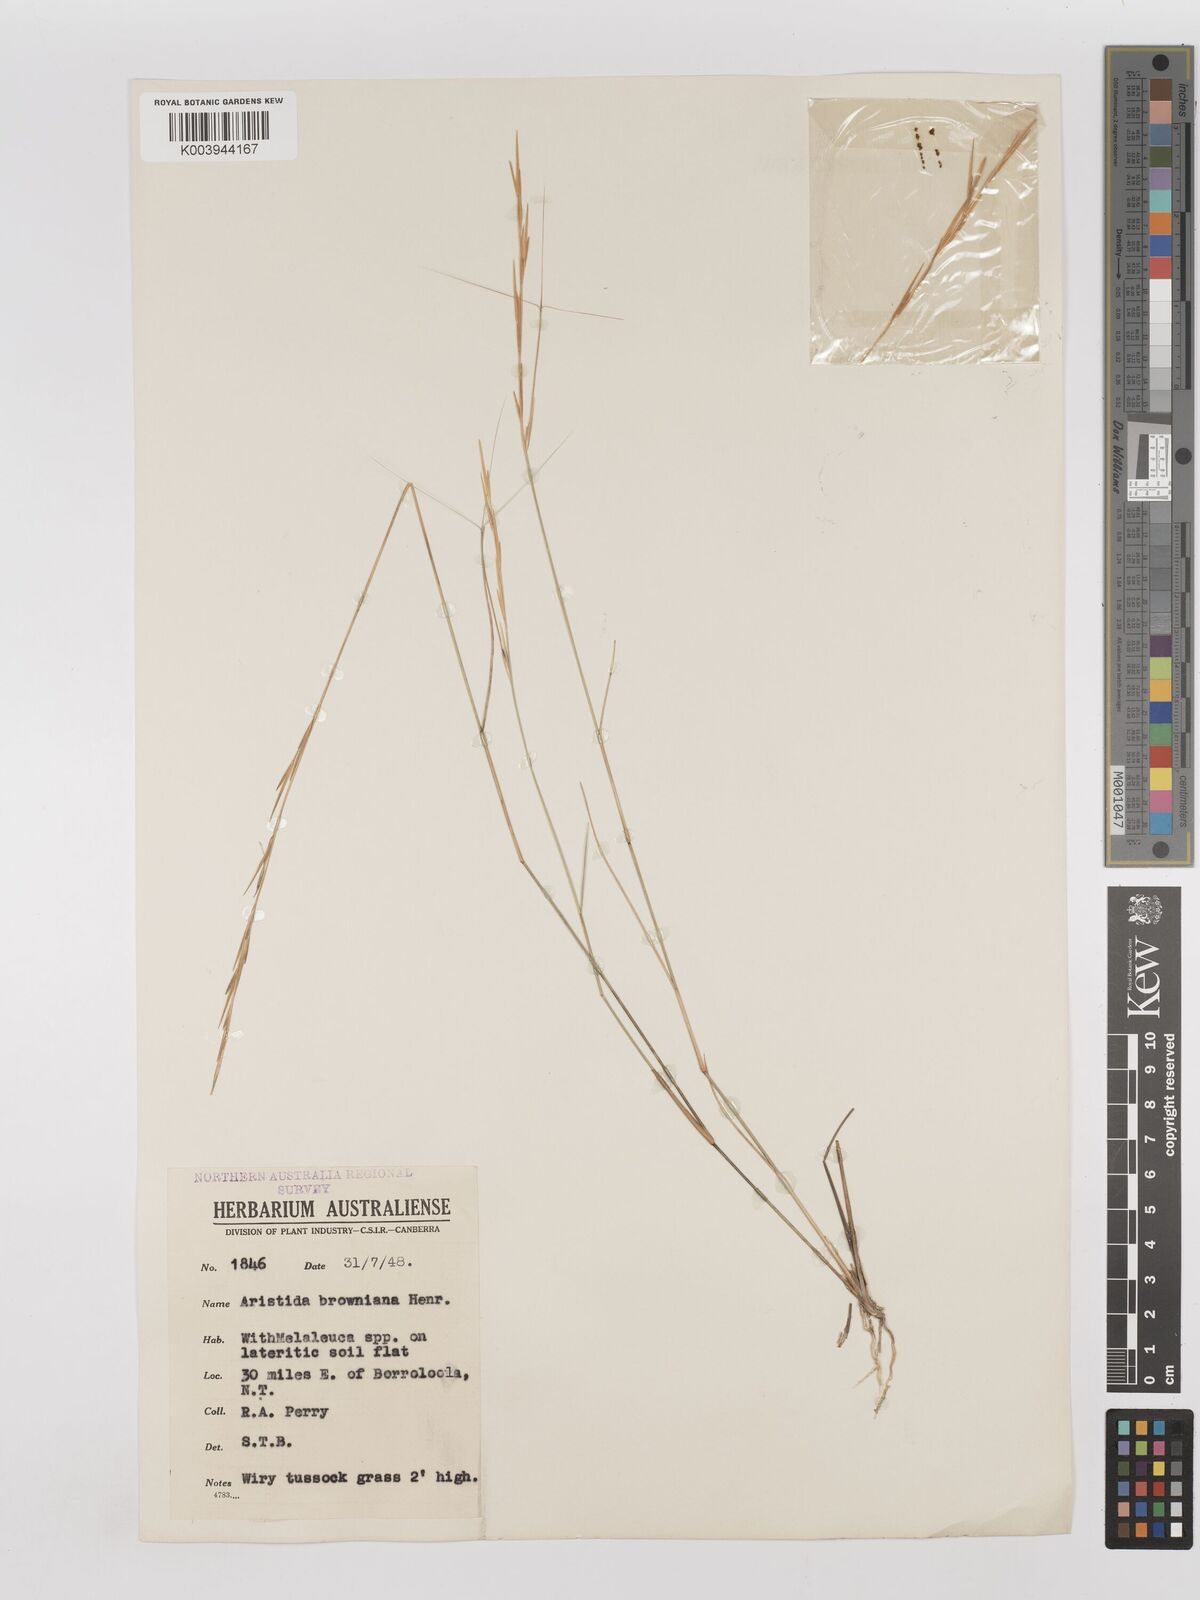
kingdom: Plantae
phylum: Tracheophyta
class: Liliopsida
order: Poales
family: Poaceae
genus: Aristida
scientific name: Aristida holathera
